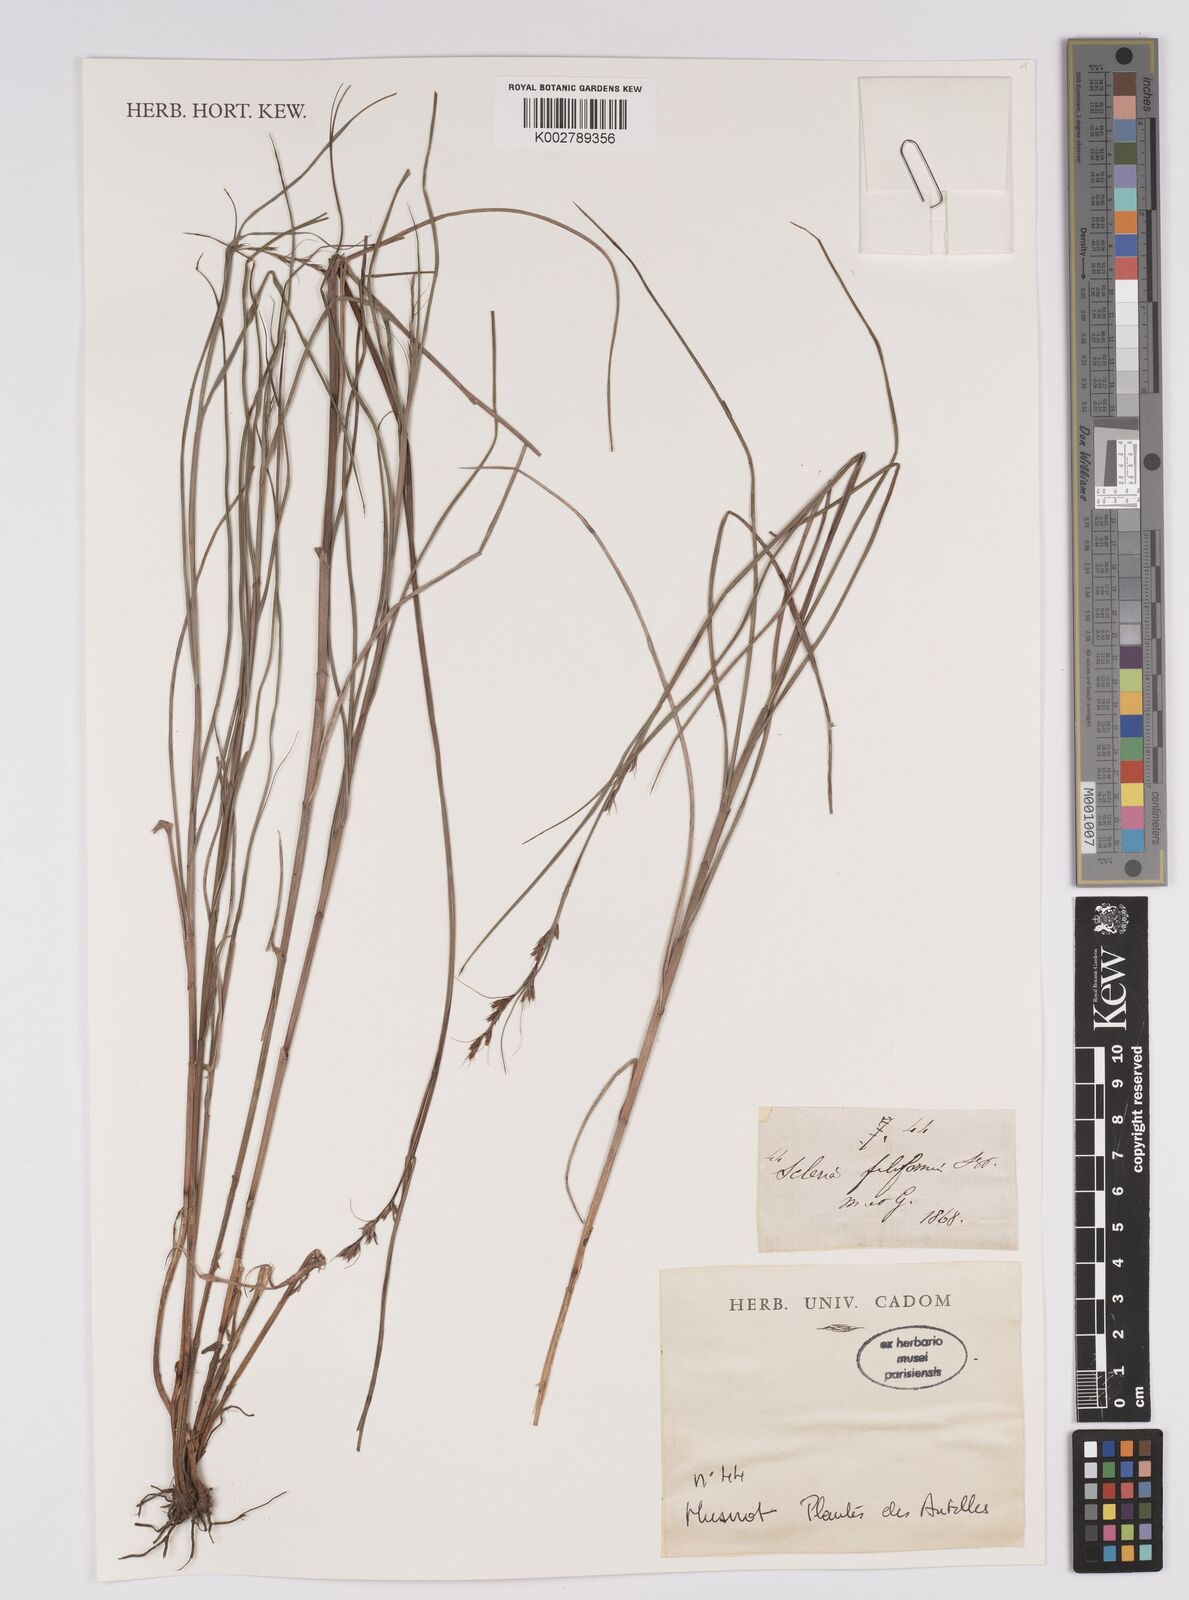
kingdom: Plantae
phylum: Tracheophyta
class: Liliopsida
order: Poales
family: Cyperaceae
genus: Scleria
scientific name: Scleria lithosperma
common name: Florida keys nut-rush
